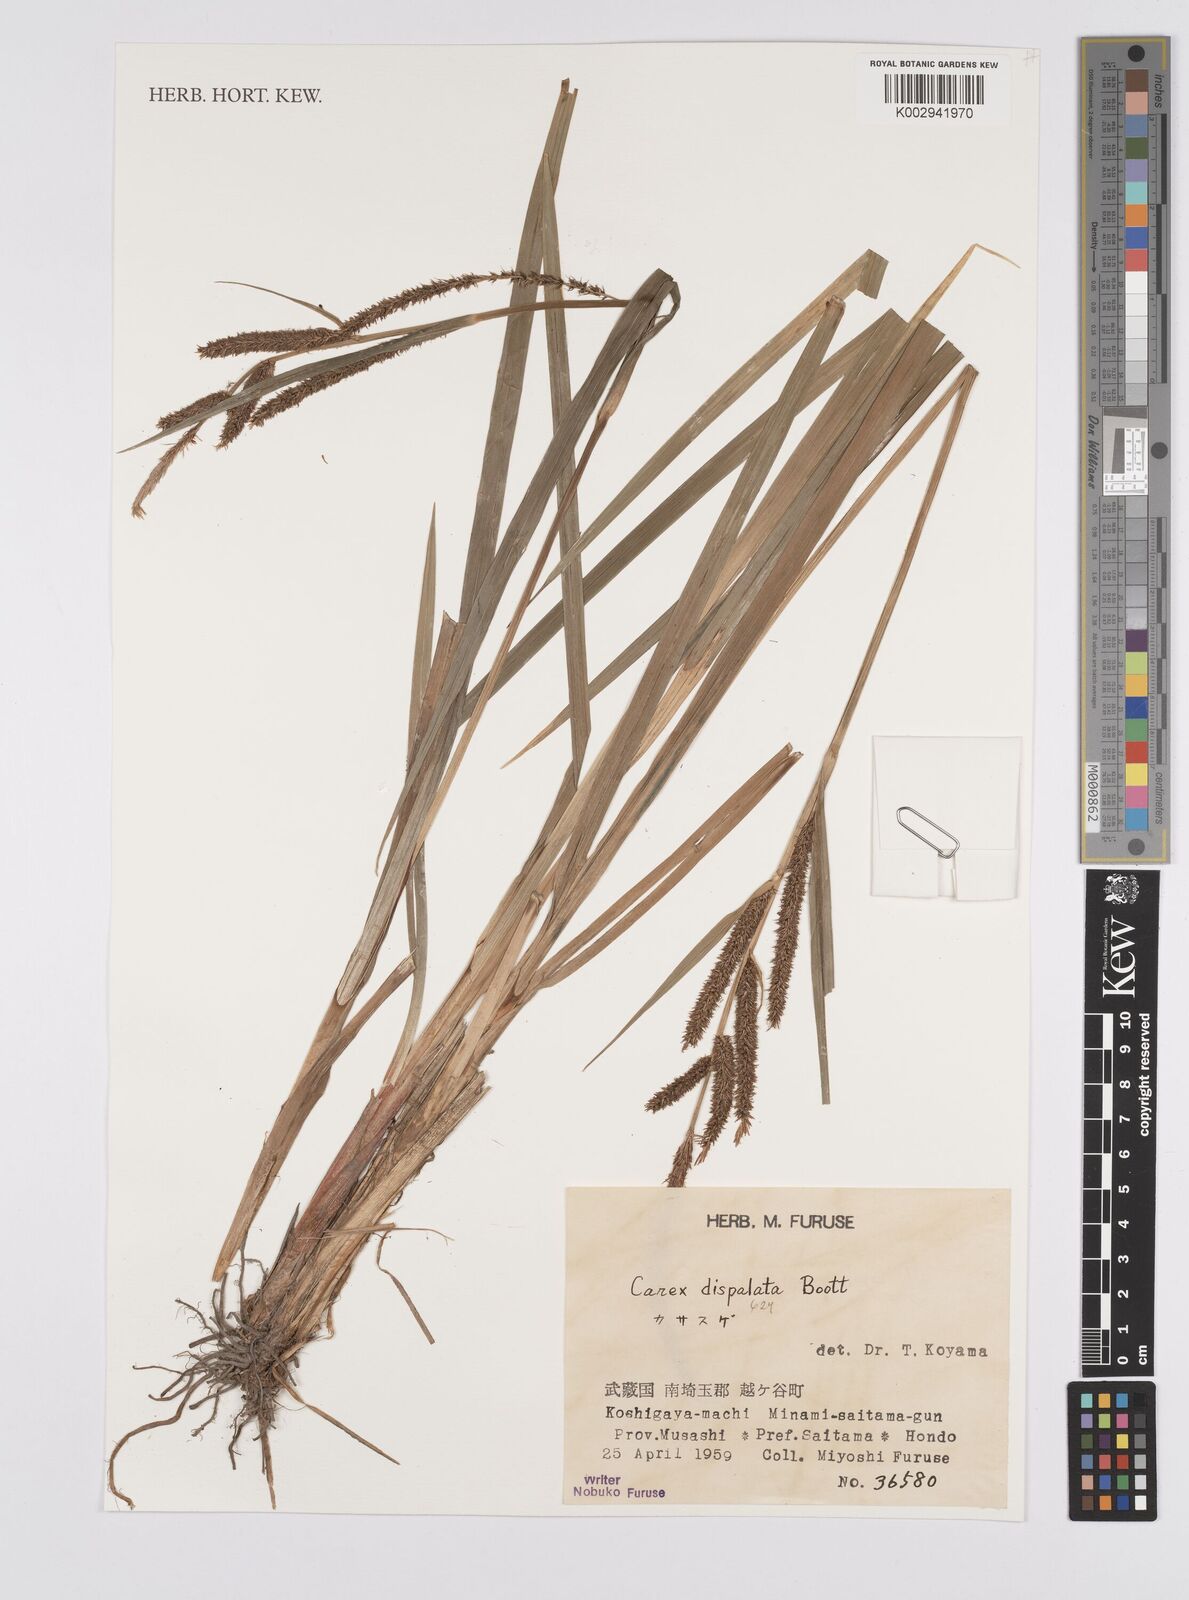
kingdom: Plantae
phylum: Tracheophyta
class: Liliopsida
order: Poales
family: Cyperaceae
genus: Carex
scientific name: Carex dispalata
